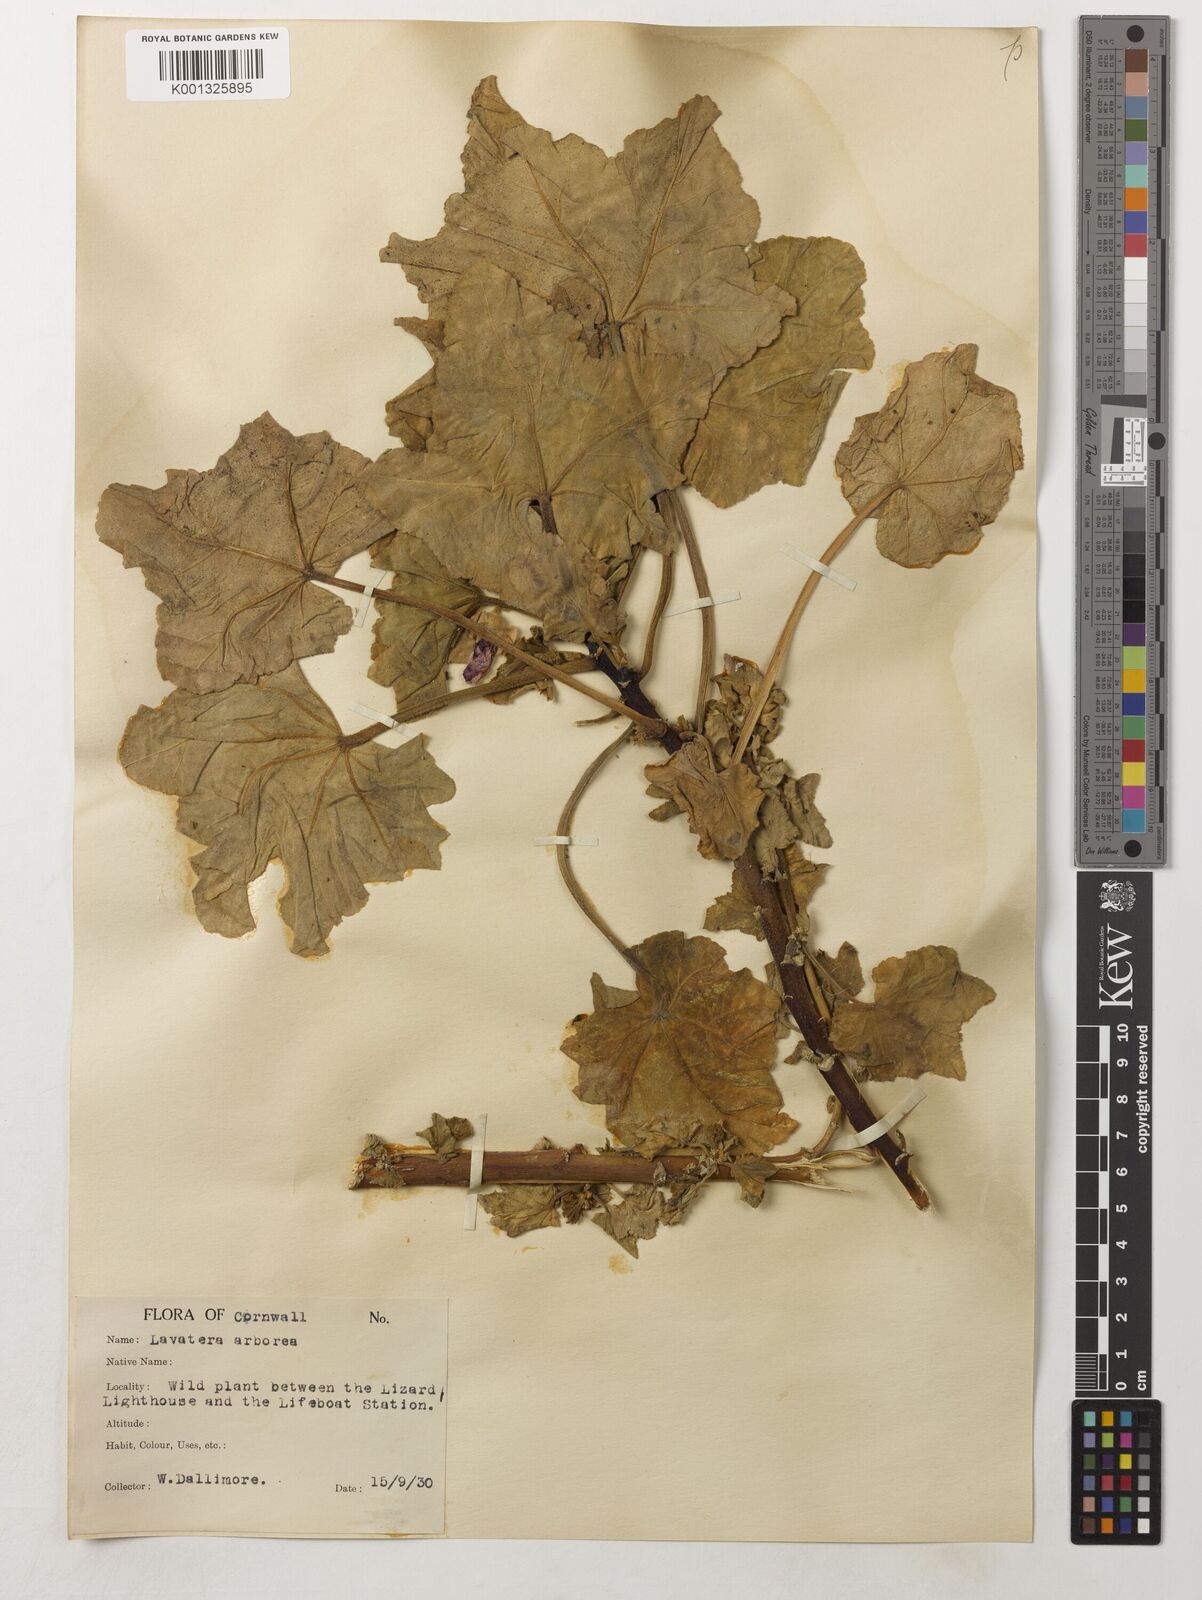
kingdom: Plantae
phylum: Tracheophyta
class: Magnoliopsida
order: Malvales
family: Malvaceae
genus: Malva
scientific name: Malva arborea
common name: Tree mallow
